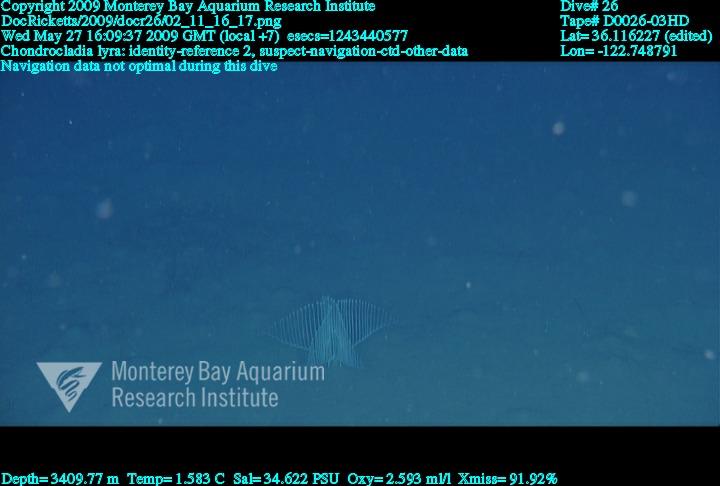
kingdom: Animalia
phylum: Porifera
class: Demospongiae
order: Poecilosclerida
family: Cladorhizidae
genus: Chondrocladia
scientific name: Chondrocladia lyra
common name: Harp sponge
